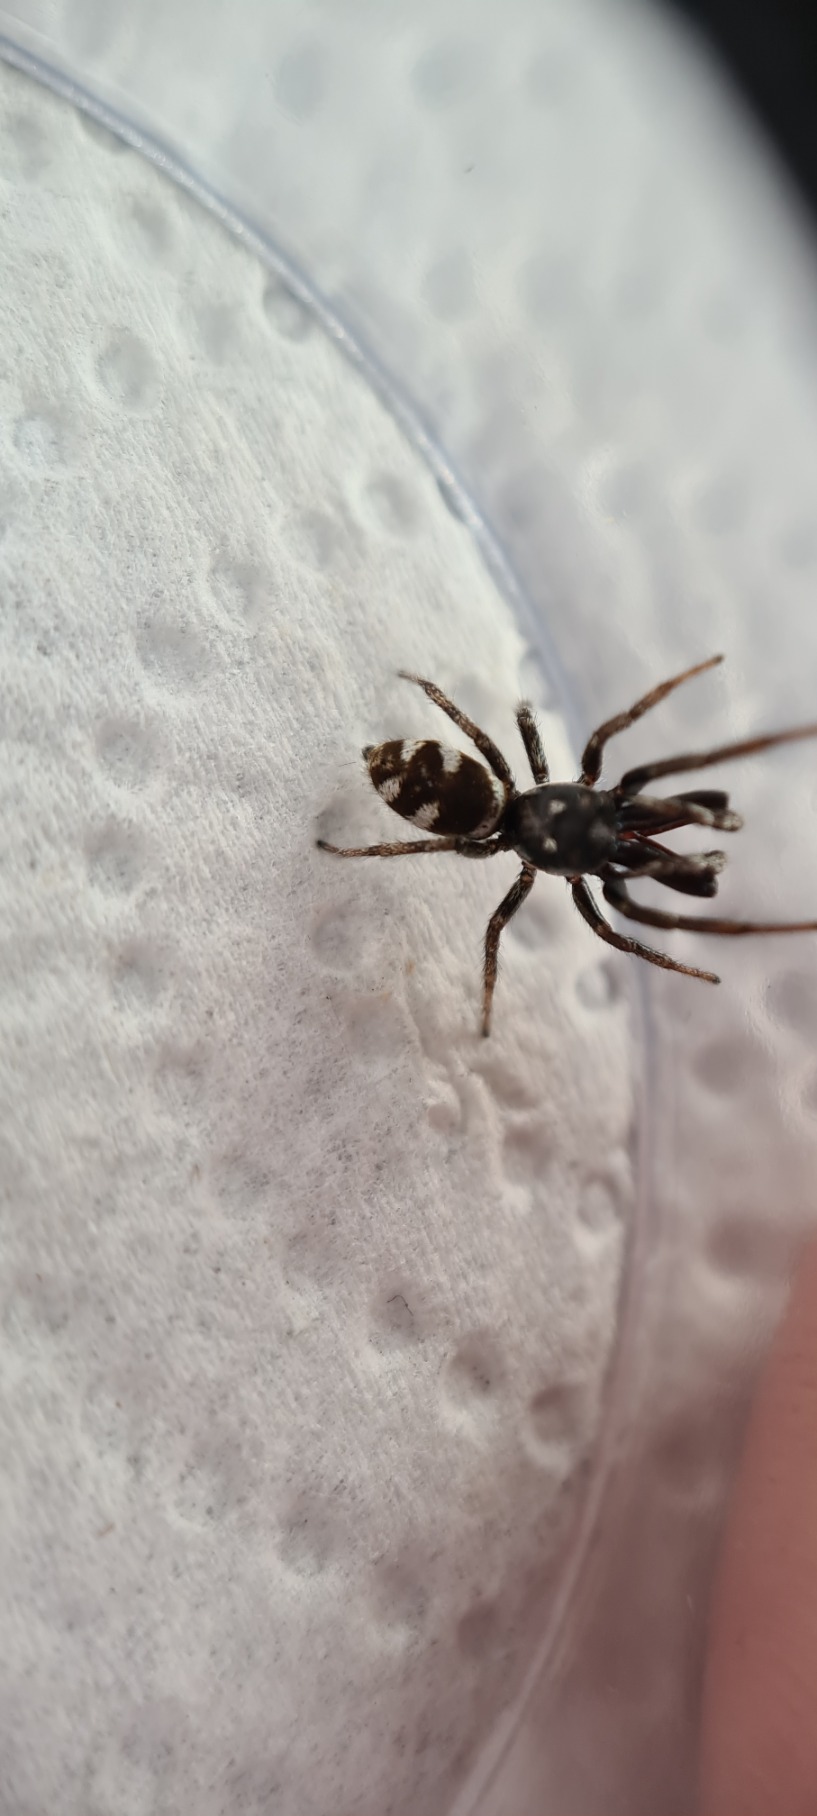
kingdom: Animalia
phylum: Arthropoda
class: Arachnida
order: Araneae
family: Salticidae
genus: Salticus
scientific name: Salticus scenicus
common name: Almindelig zebraedderkop
